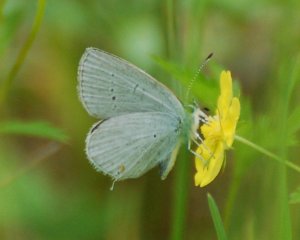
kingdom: Animalia
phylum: Arthropoda
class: Insecta
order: Lepidoptera
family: Lycaenidae
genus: Elkalyce
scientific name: Elkalyce amyntula
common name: Western Tailed-Blue
